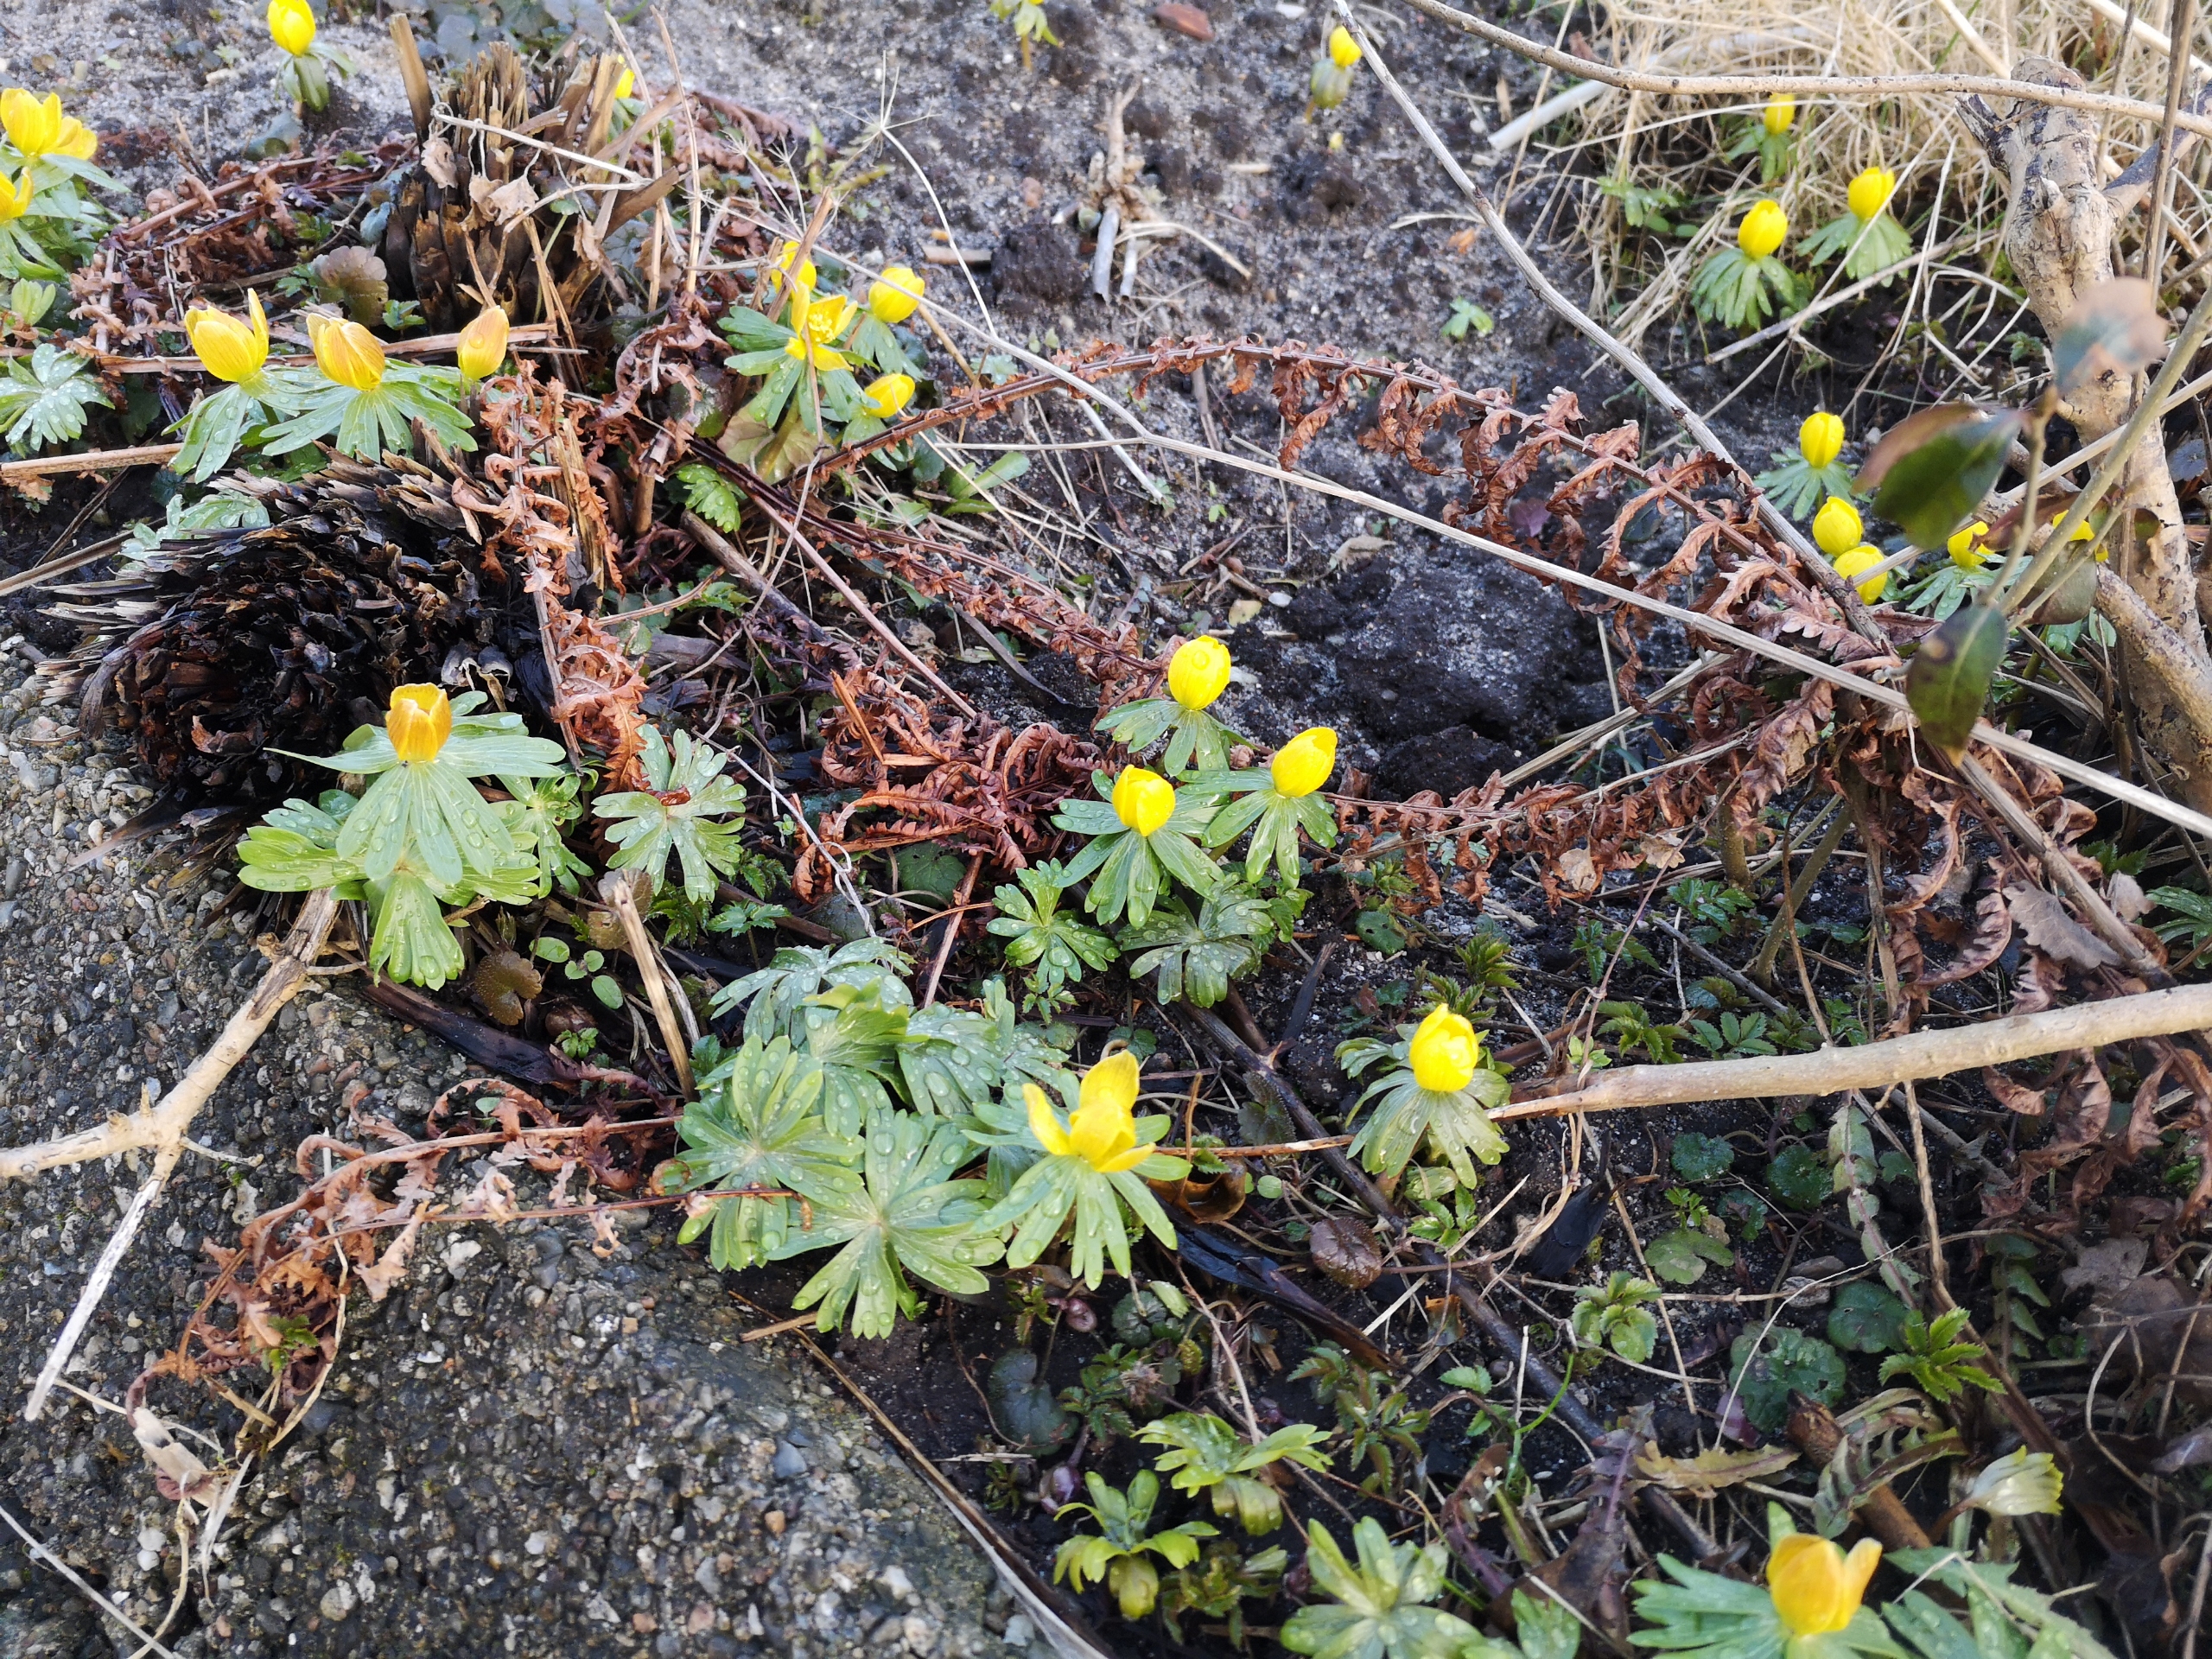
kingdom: Plantae
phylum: Tracheophyta
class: Magnoliopsida
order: Ranunculales
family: Ranunculaceae
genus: Eranthis
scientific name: Eranthis hyemalis
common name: Erantis
